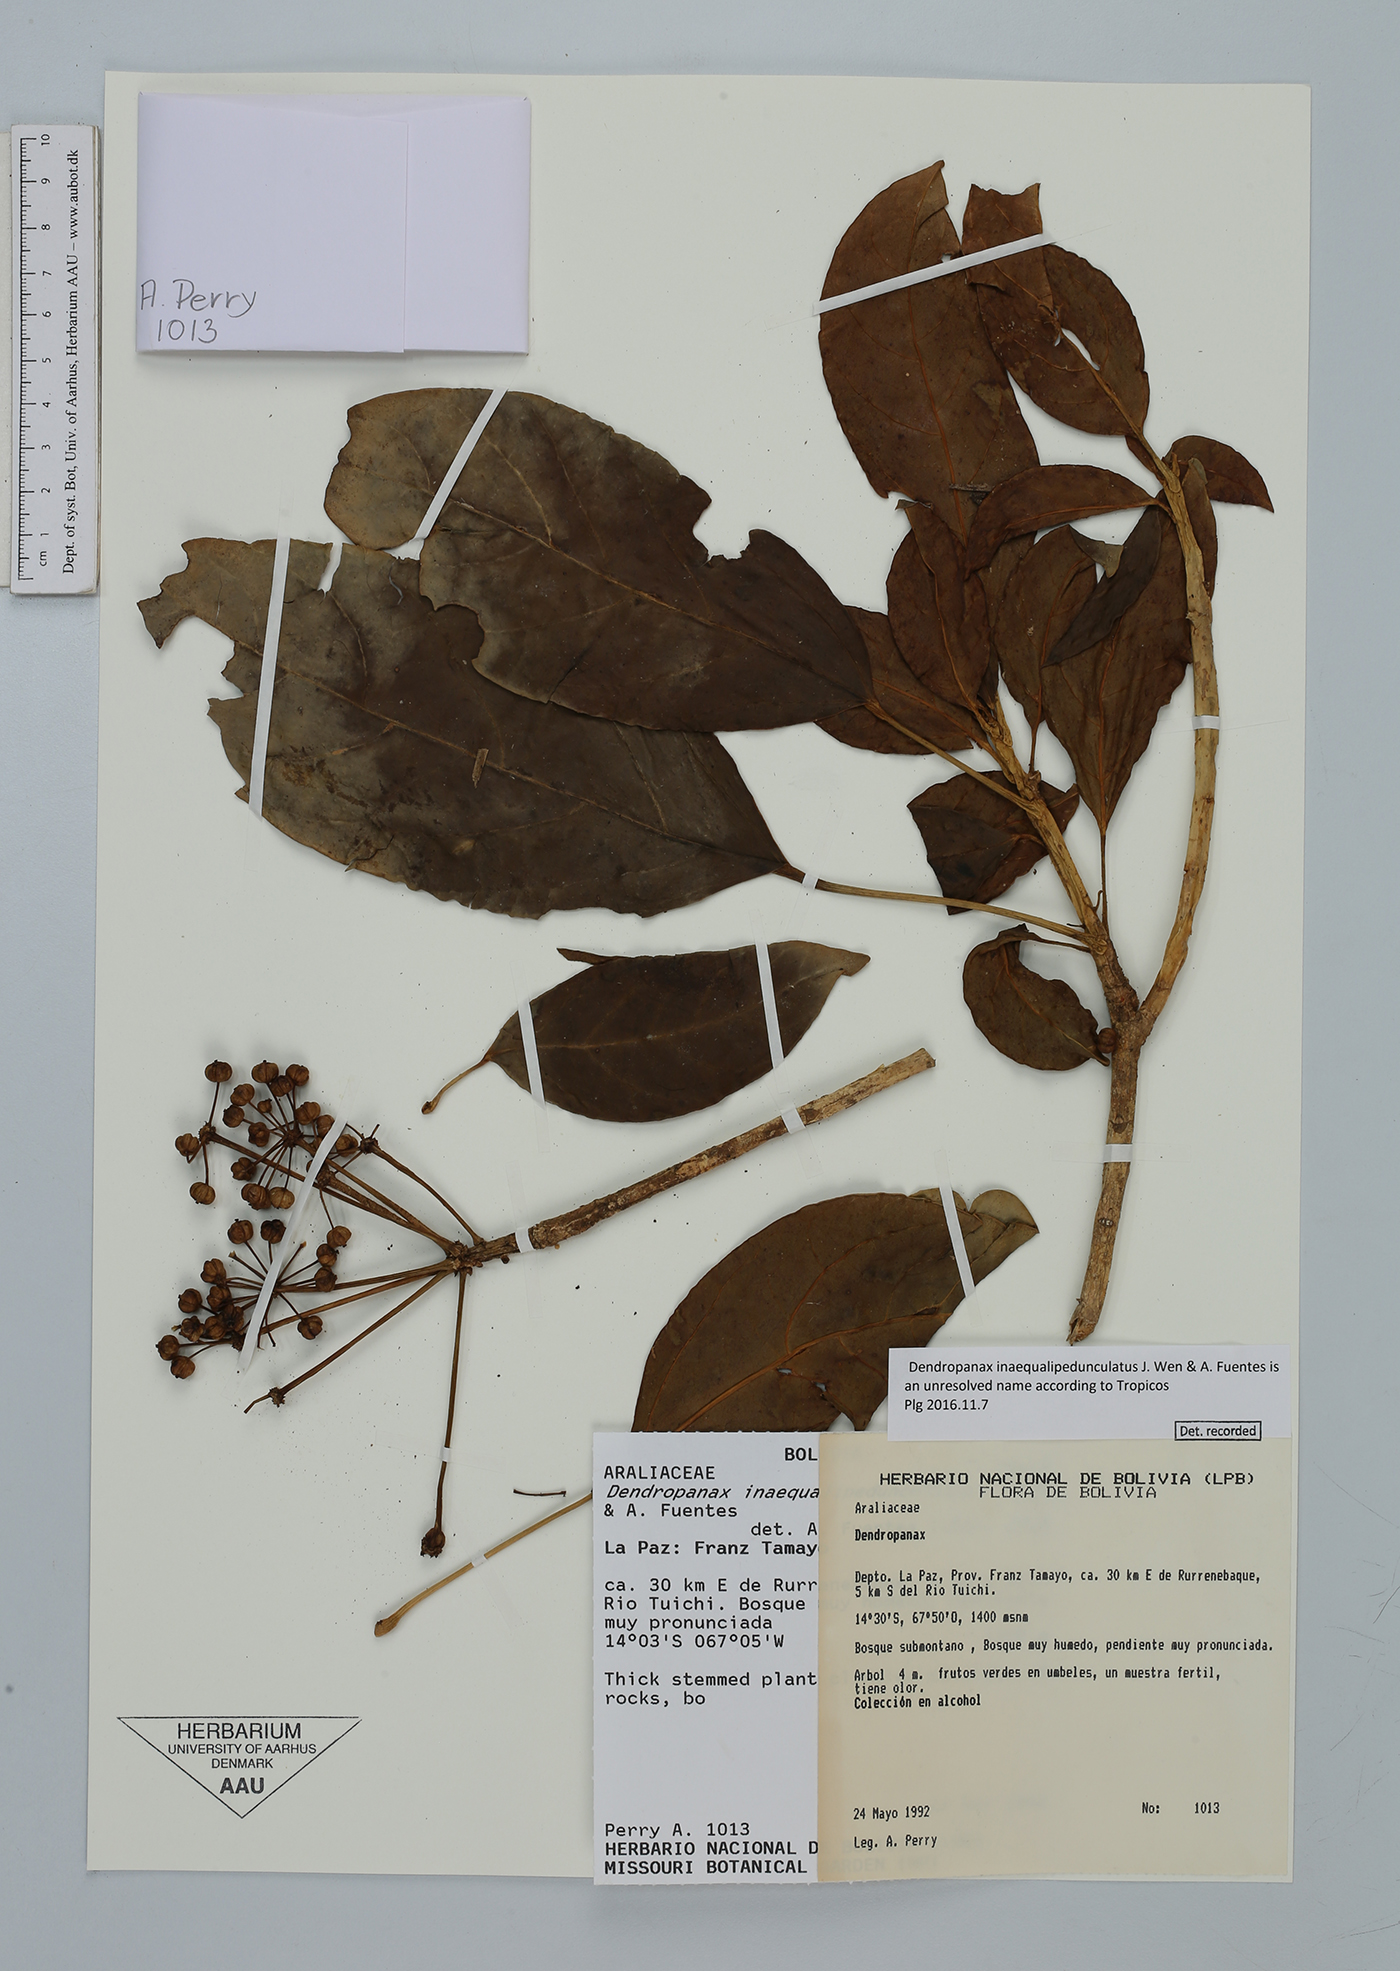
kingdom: Plantae
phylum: Tracheophyta
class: Magnoliopsida
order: Apiales
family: Araliaceae
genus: Dendropanax
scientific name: Dendropanax
